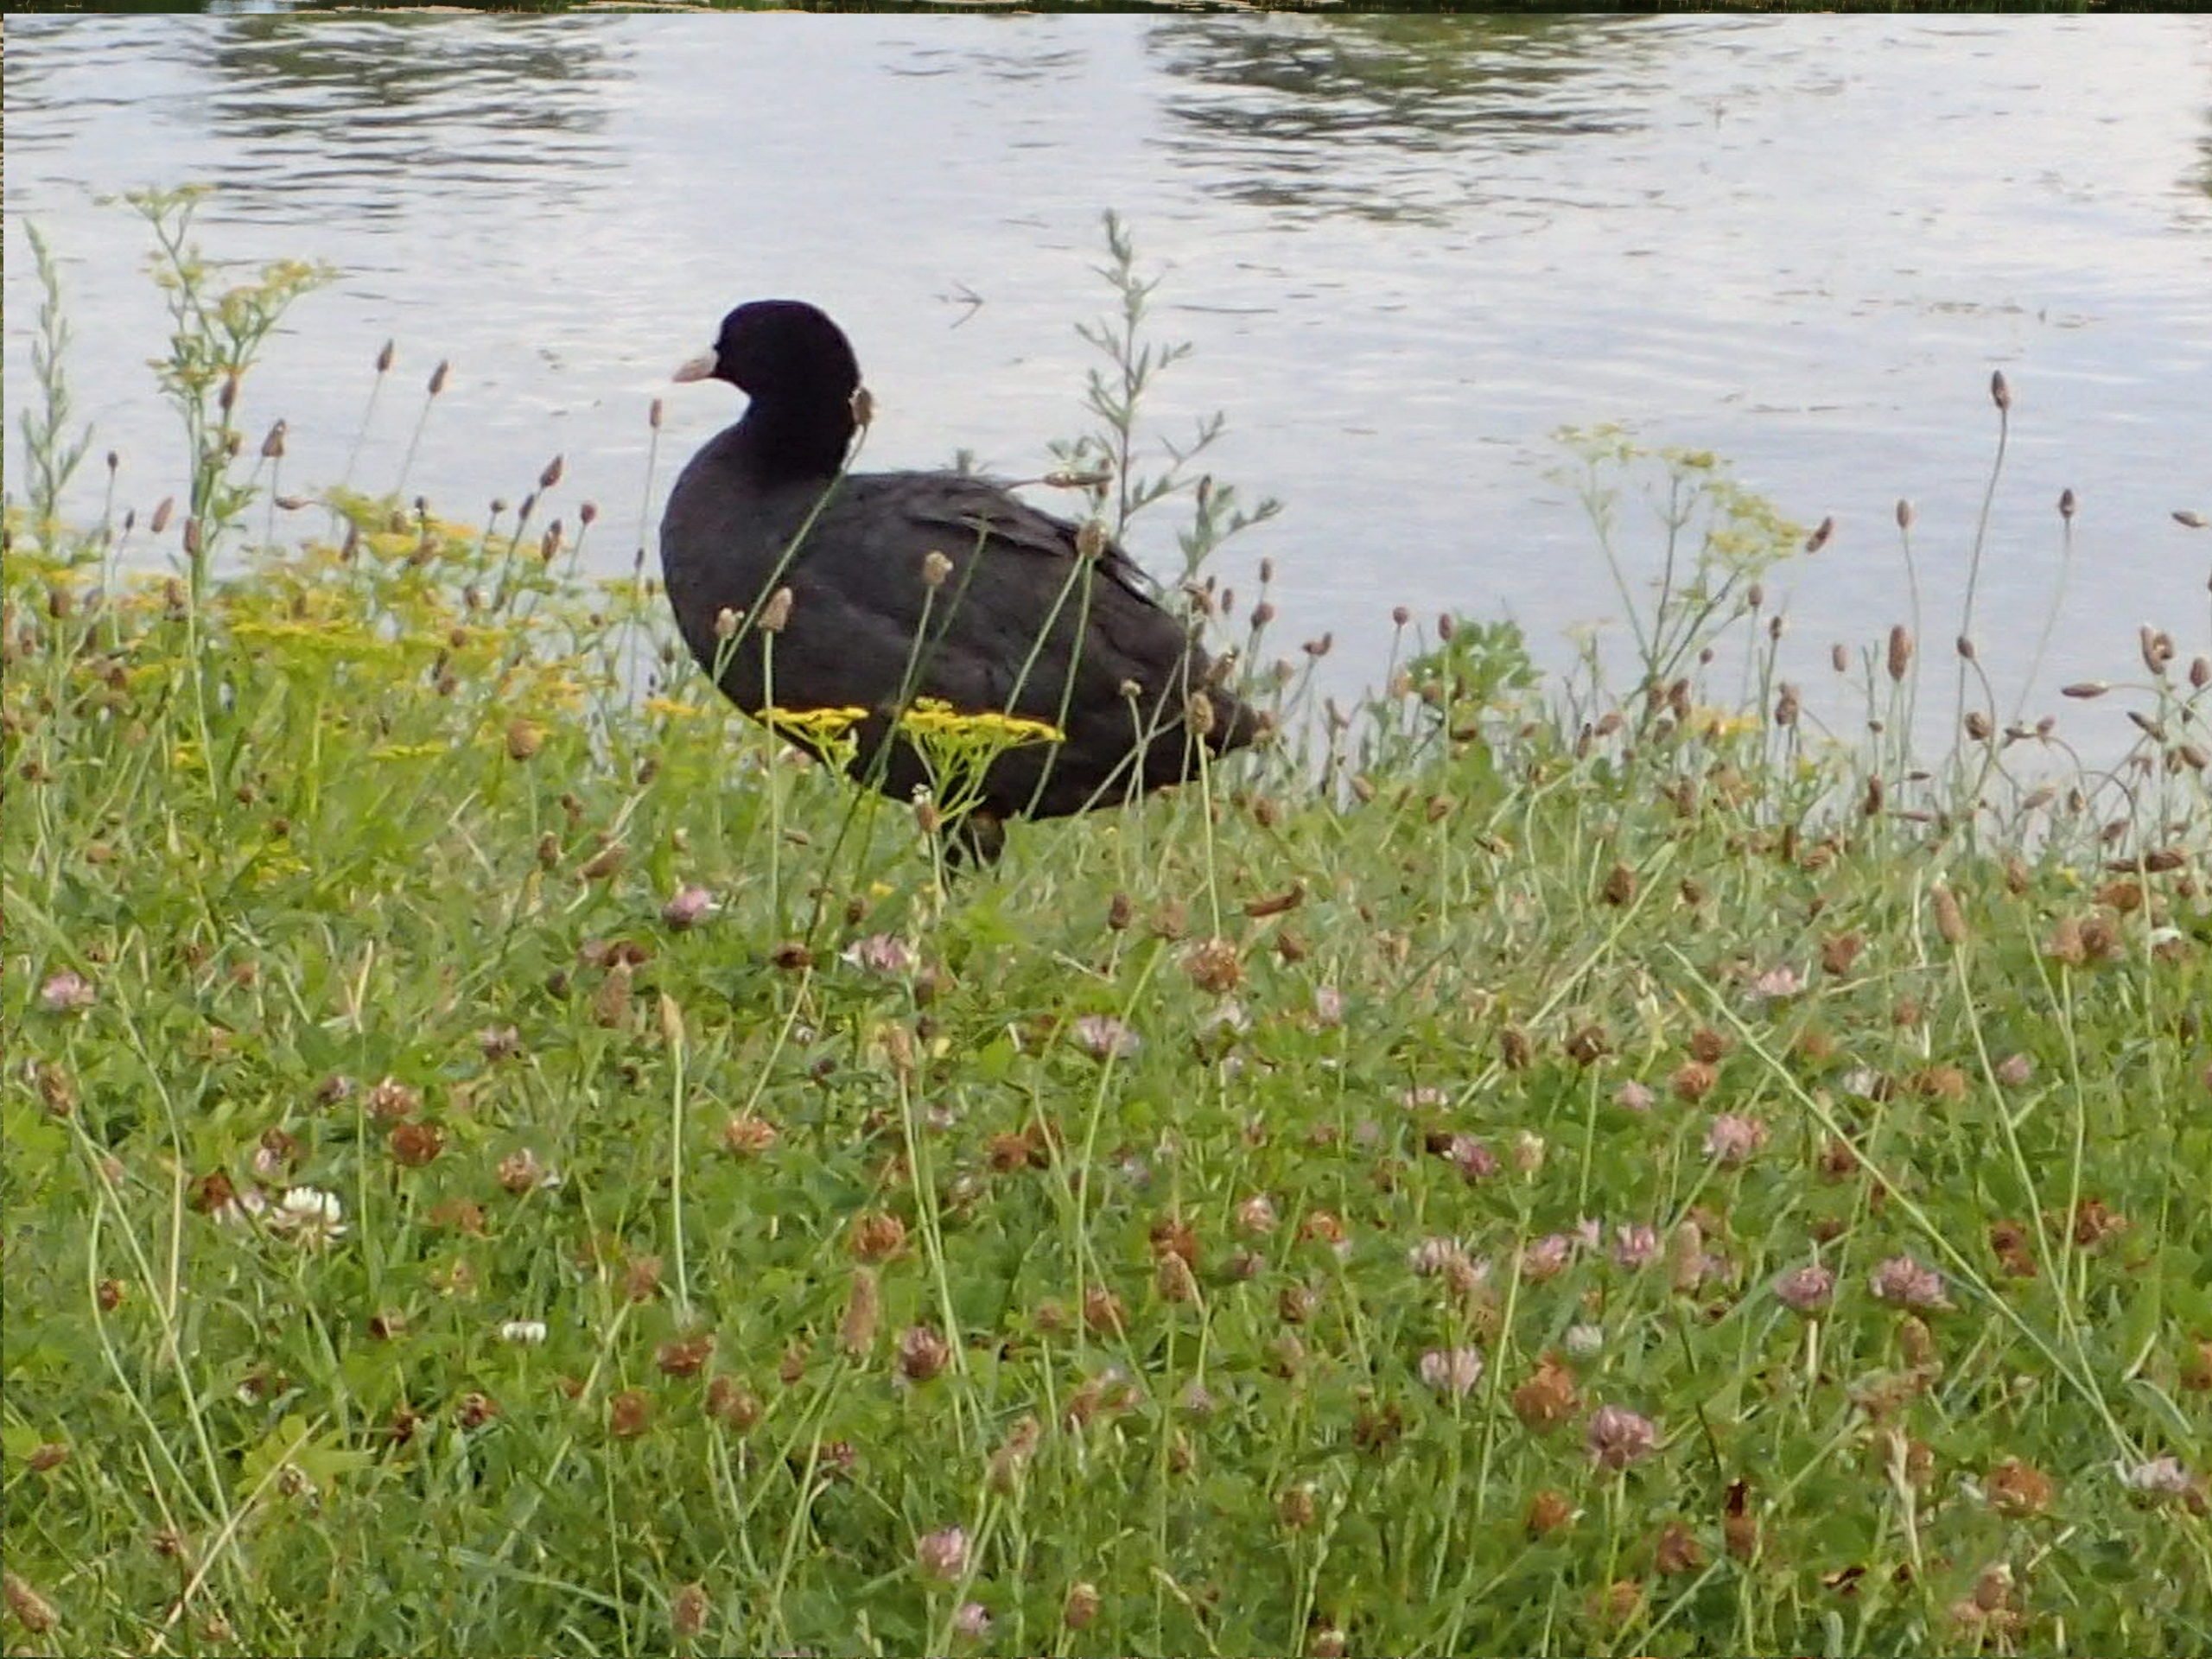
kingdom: Animalia
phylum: Chordata
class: Aves
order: Gruiformes
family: Rallidae
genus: Fulica
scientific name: Fulica atra
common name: Blishøne
